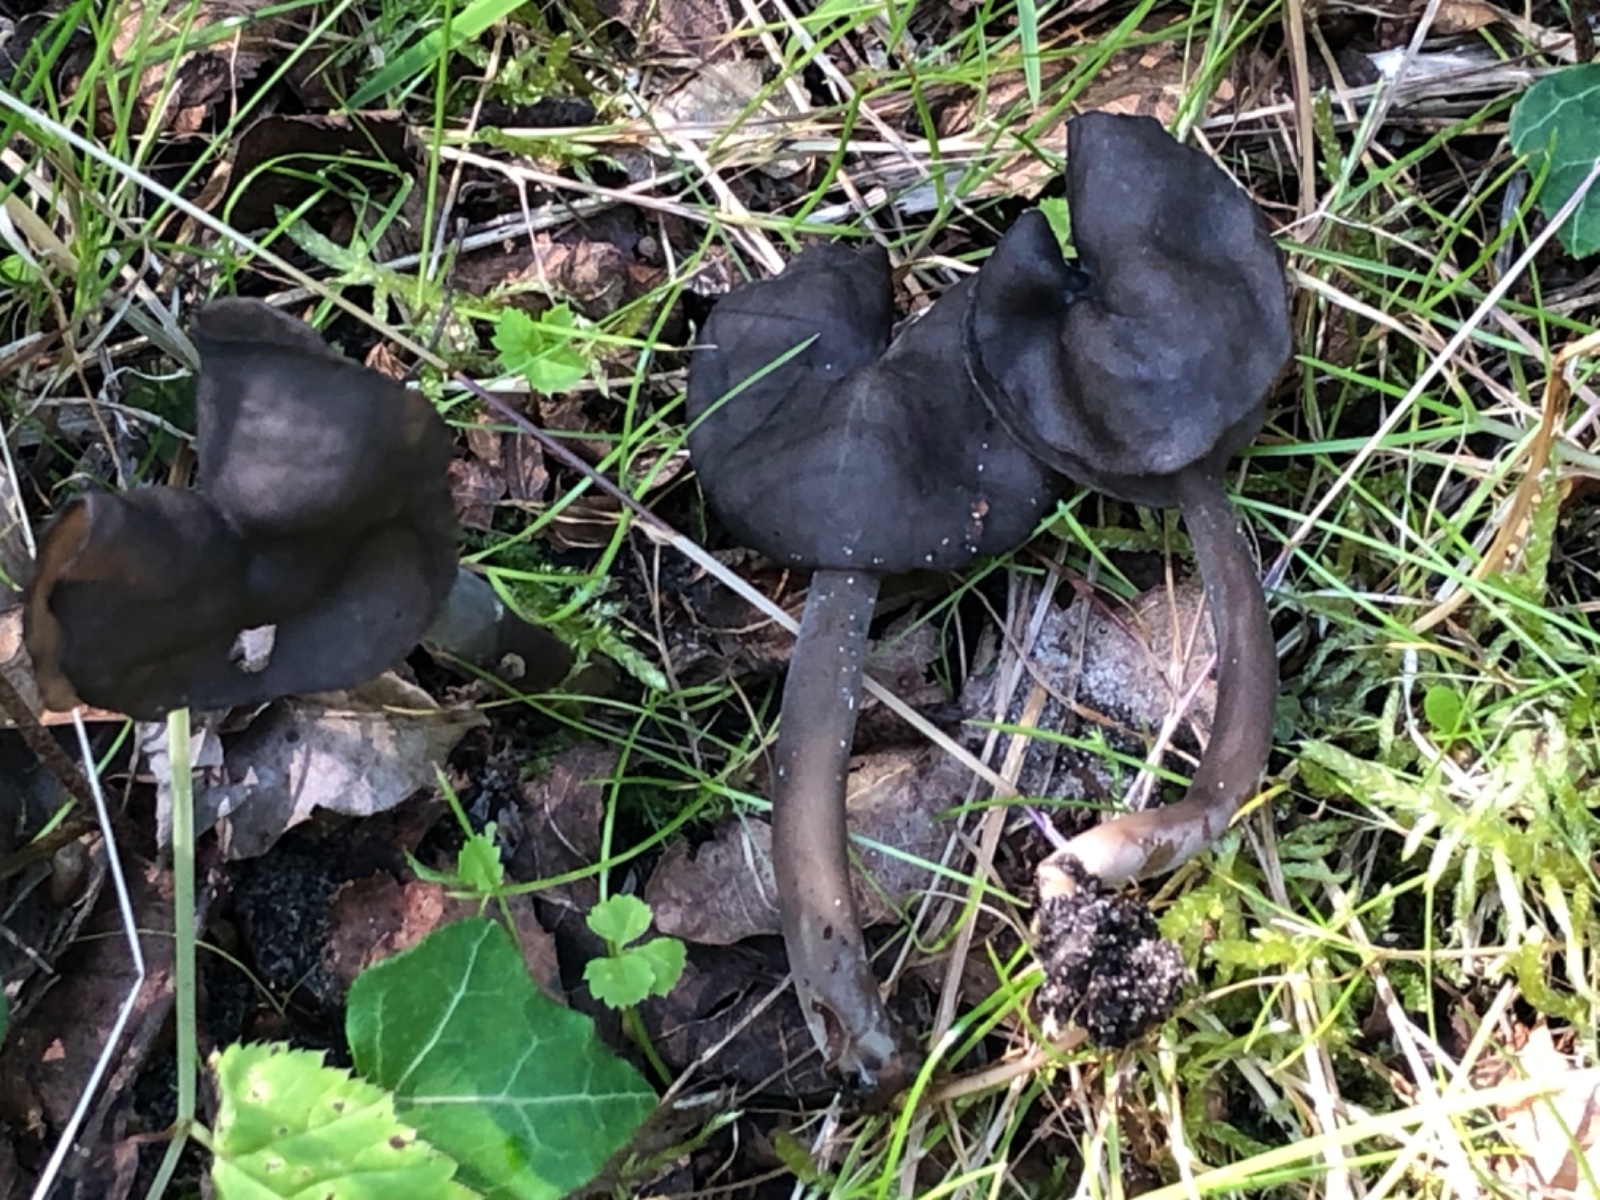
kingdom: Fungi
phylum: Ascomycota
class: Pezizomycetes
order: Pezizales
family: Helvellaceae
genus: Helvella
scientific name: Helvella atra
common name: sort foldhat
